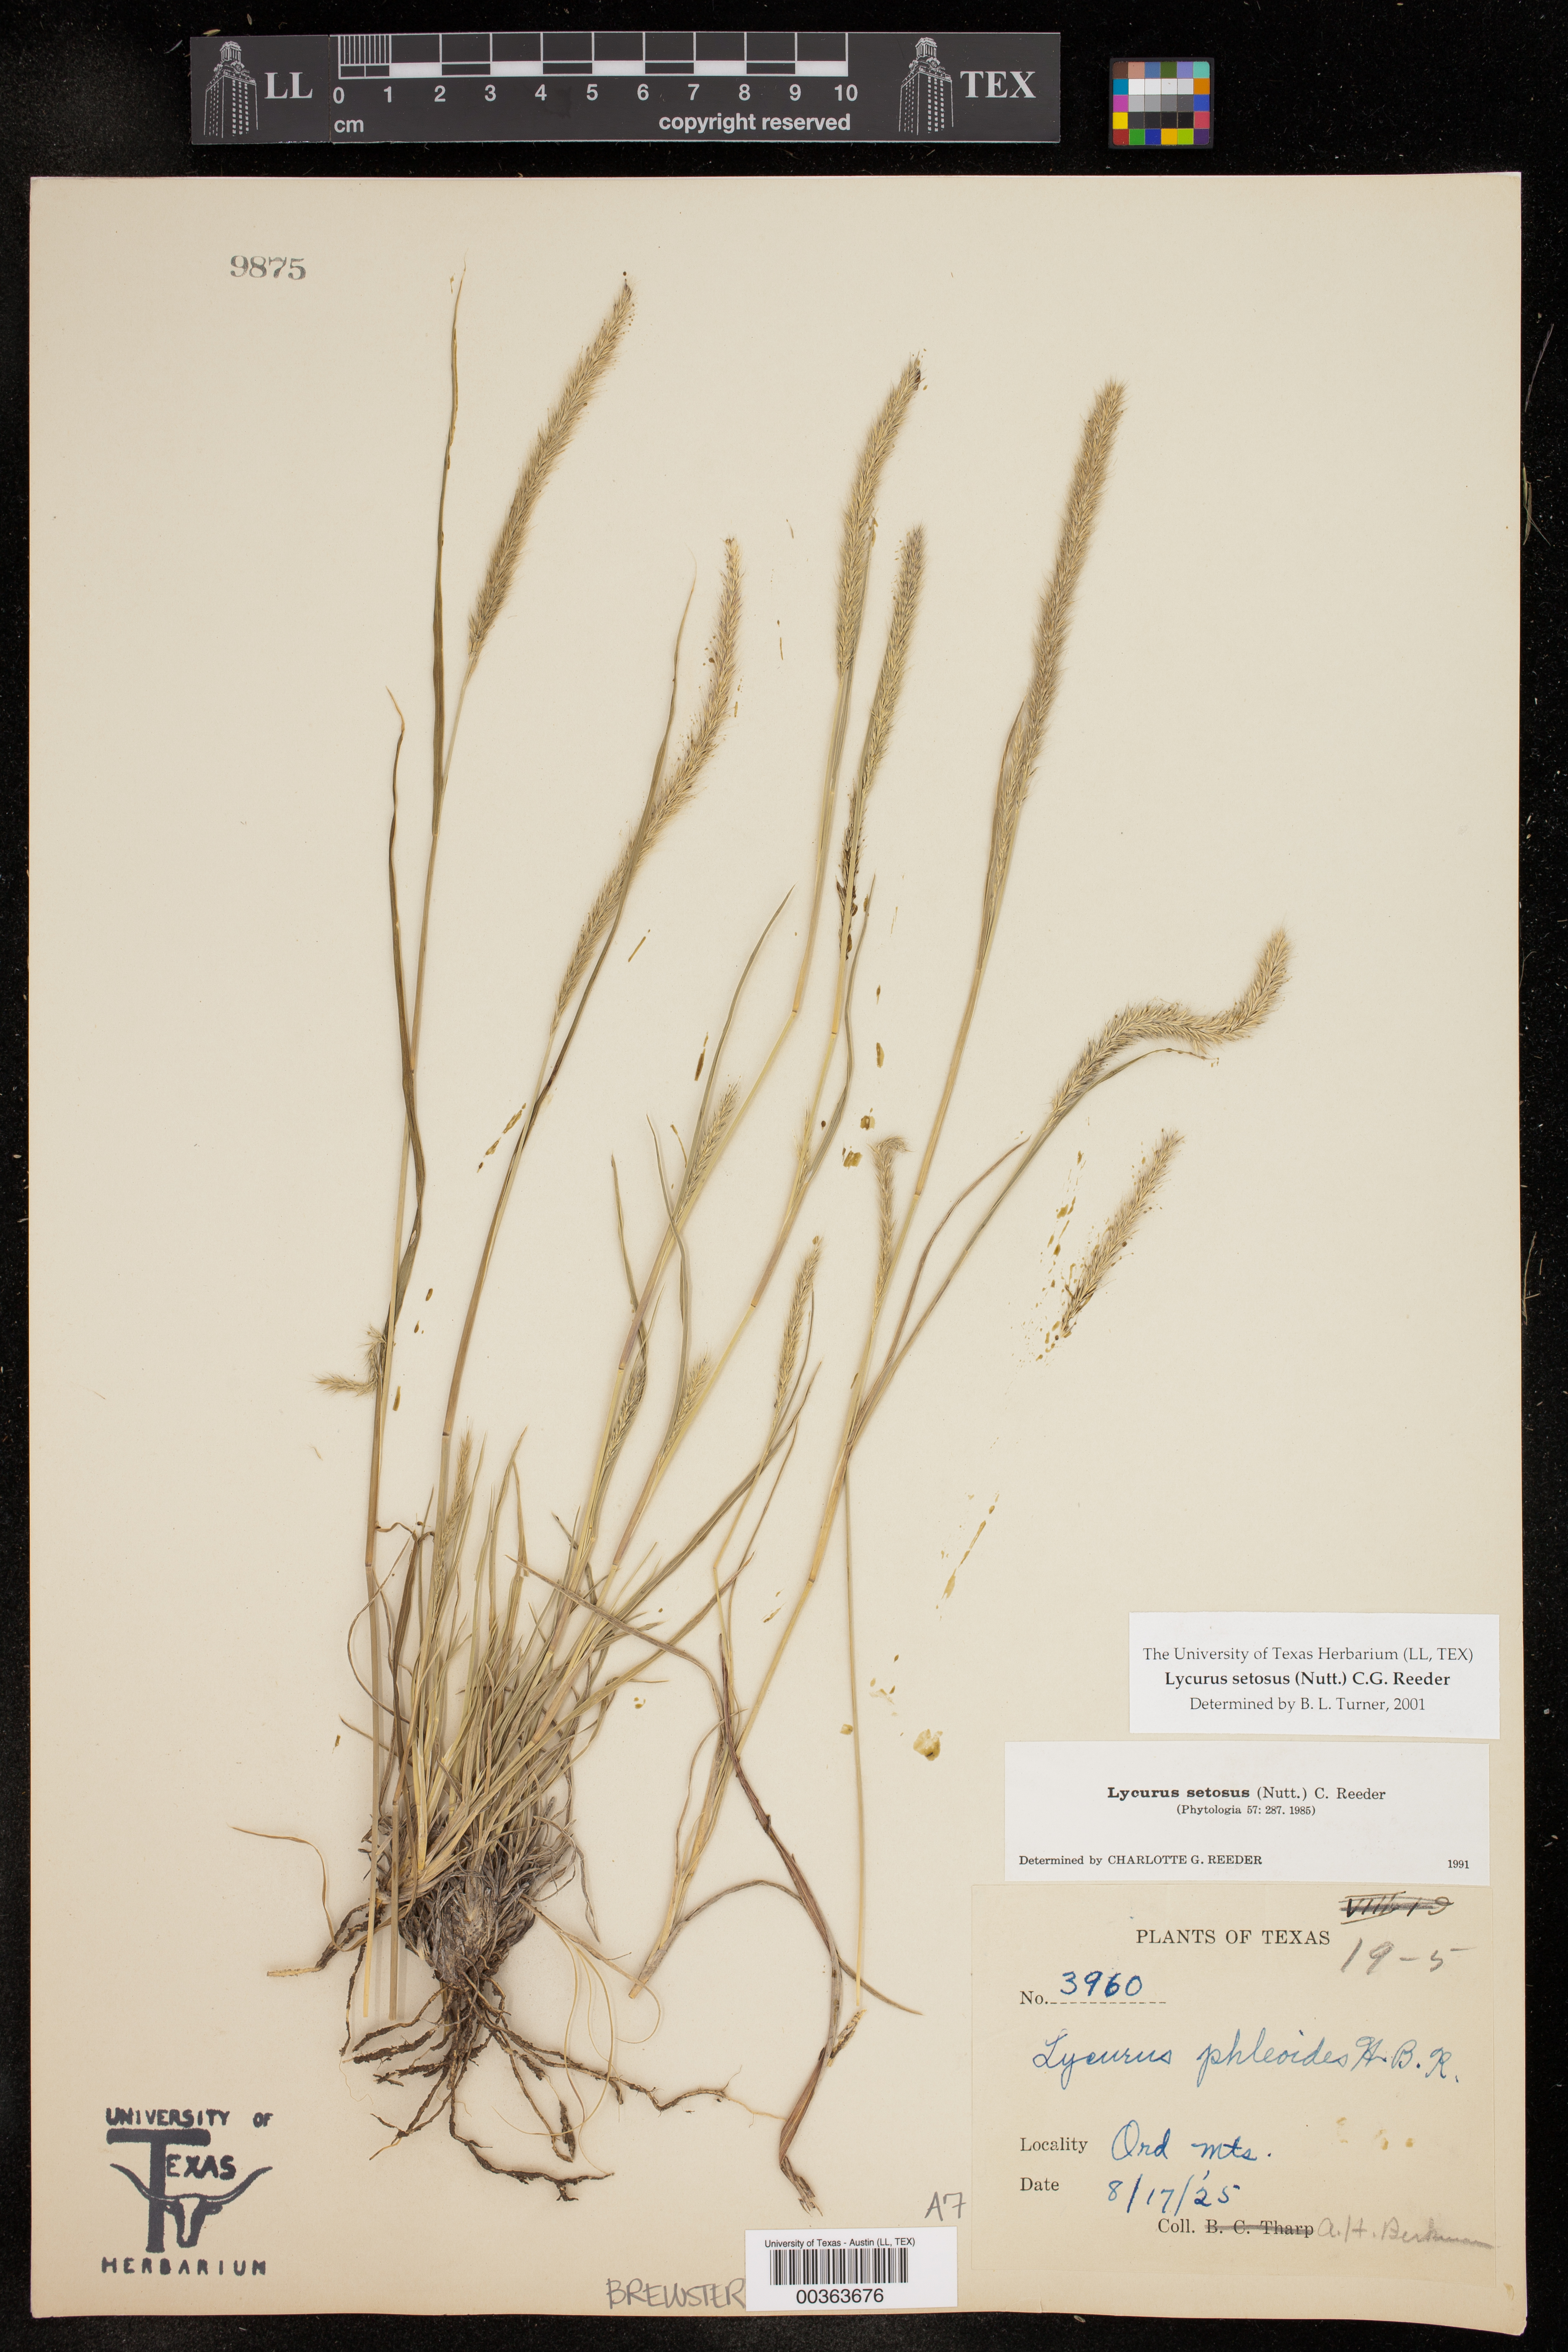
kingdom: Plantae
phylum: Tracheophyta
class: Liliopsida
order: Poales
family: Poaceae
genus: Muhlenbergia
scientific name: Muhlenbergia alopecuroides
